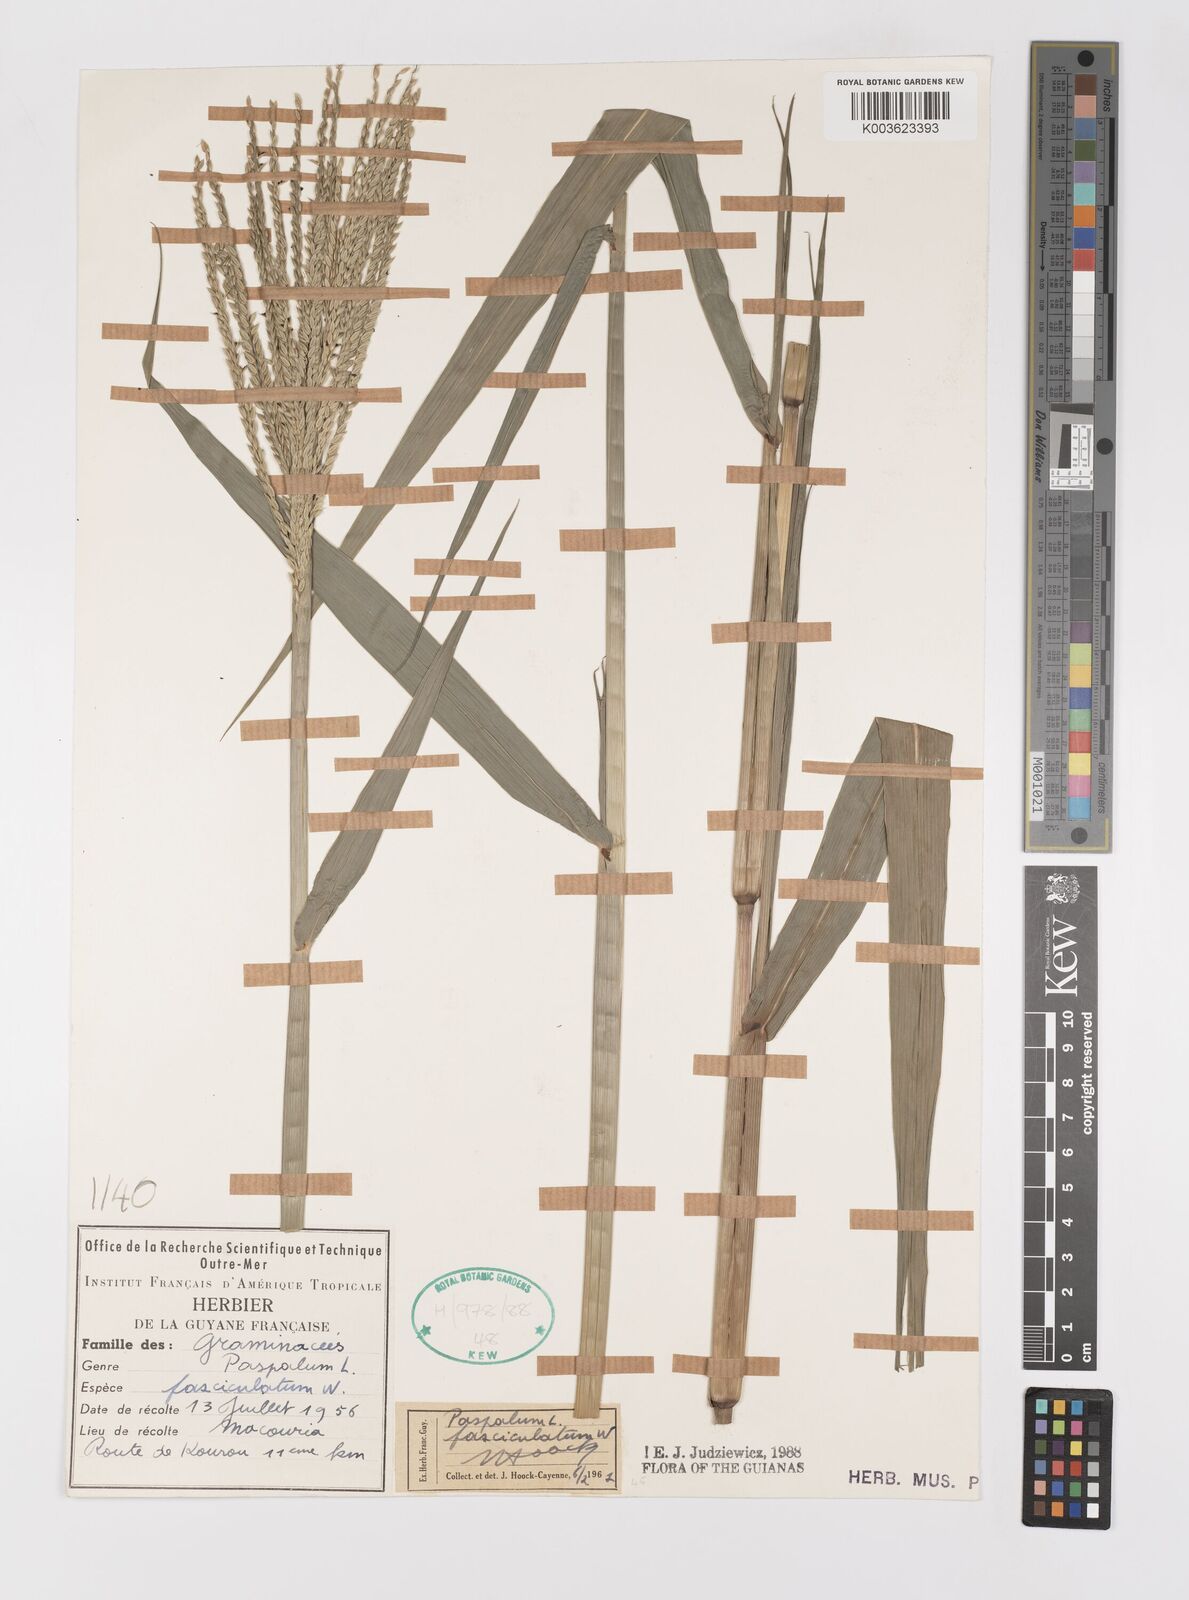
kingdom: Plantae
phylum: Tracheophyta
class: Liliopsida
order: Poales
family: Poaceae
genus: Paspalum
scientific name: Paspalum fasciculatum
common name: Bamboo grass
